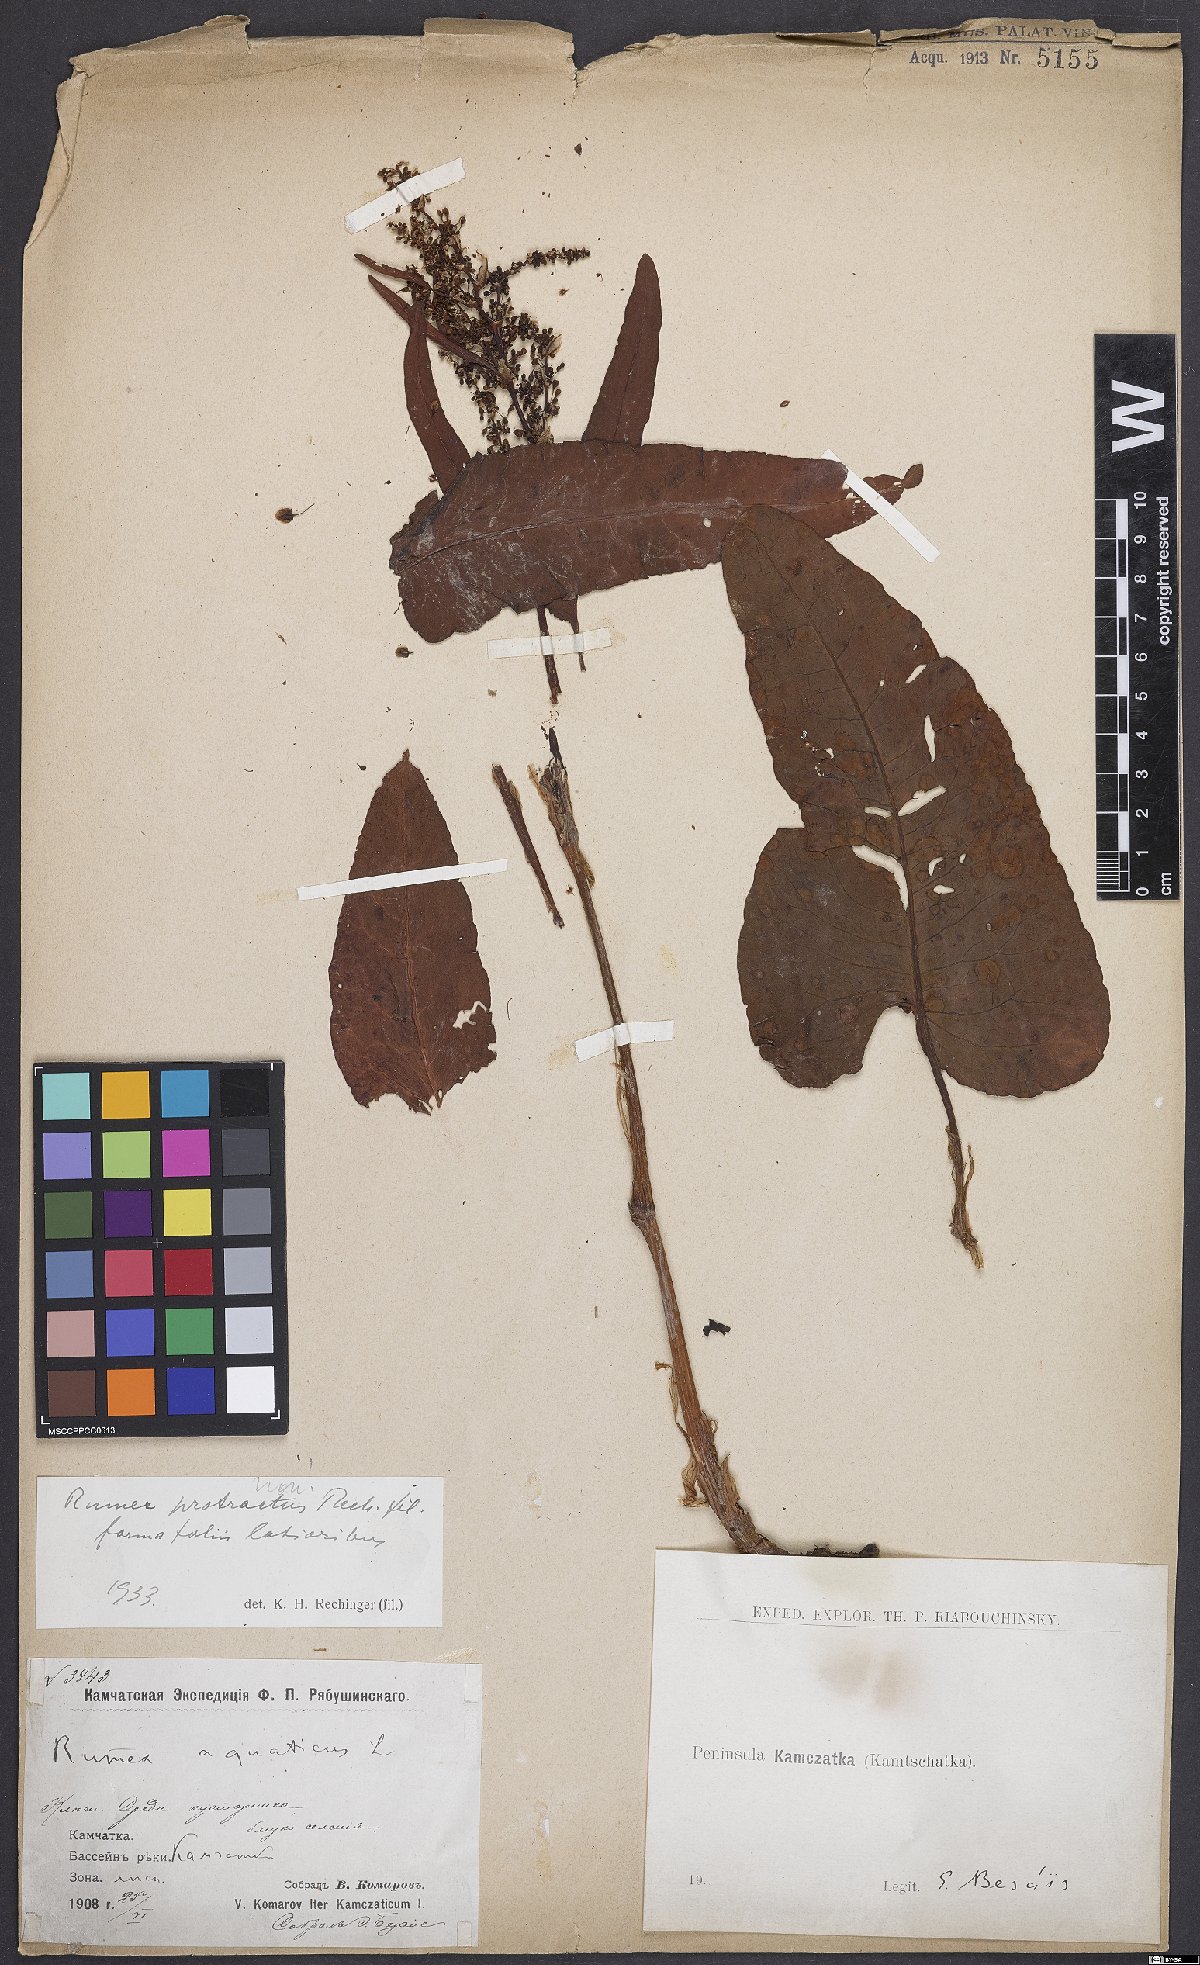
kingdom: Plantae
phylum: Tracheophyta
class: Magnoliopsida
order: Caryophyllales
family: Polygonaceae
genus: Rumex
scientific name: Rumex aquaticus
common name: Scottish dock
